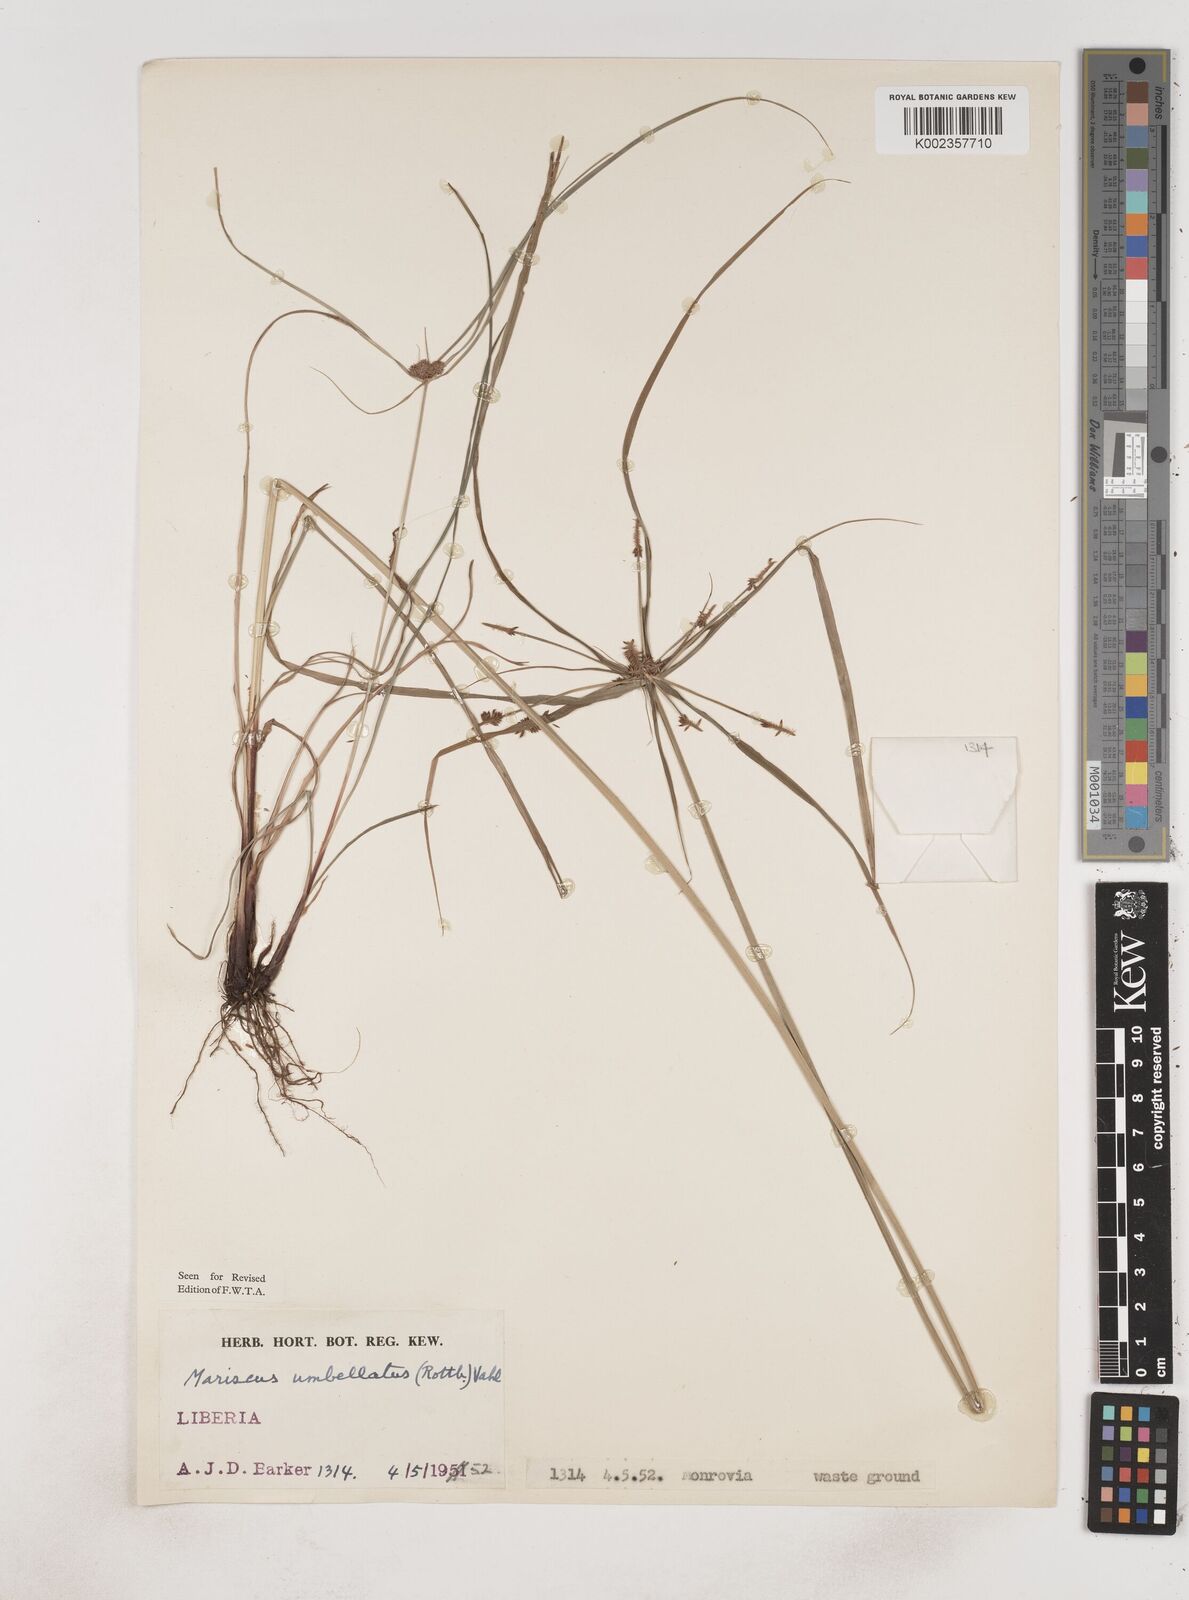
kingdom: Plantae
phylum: Tracheophyta
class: Liliopsida
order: Poales
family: Cyperaceae
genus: Cyperus
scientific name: Cyperus sublimis
